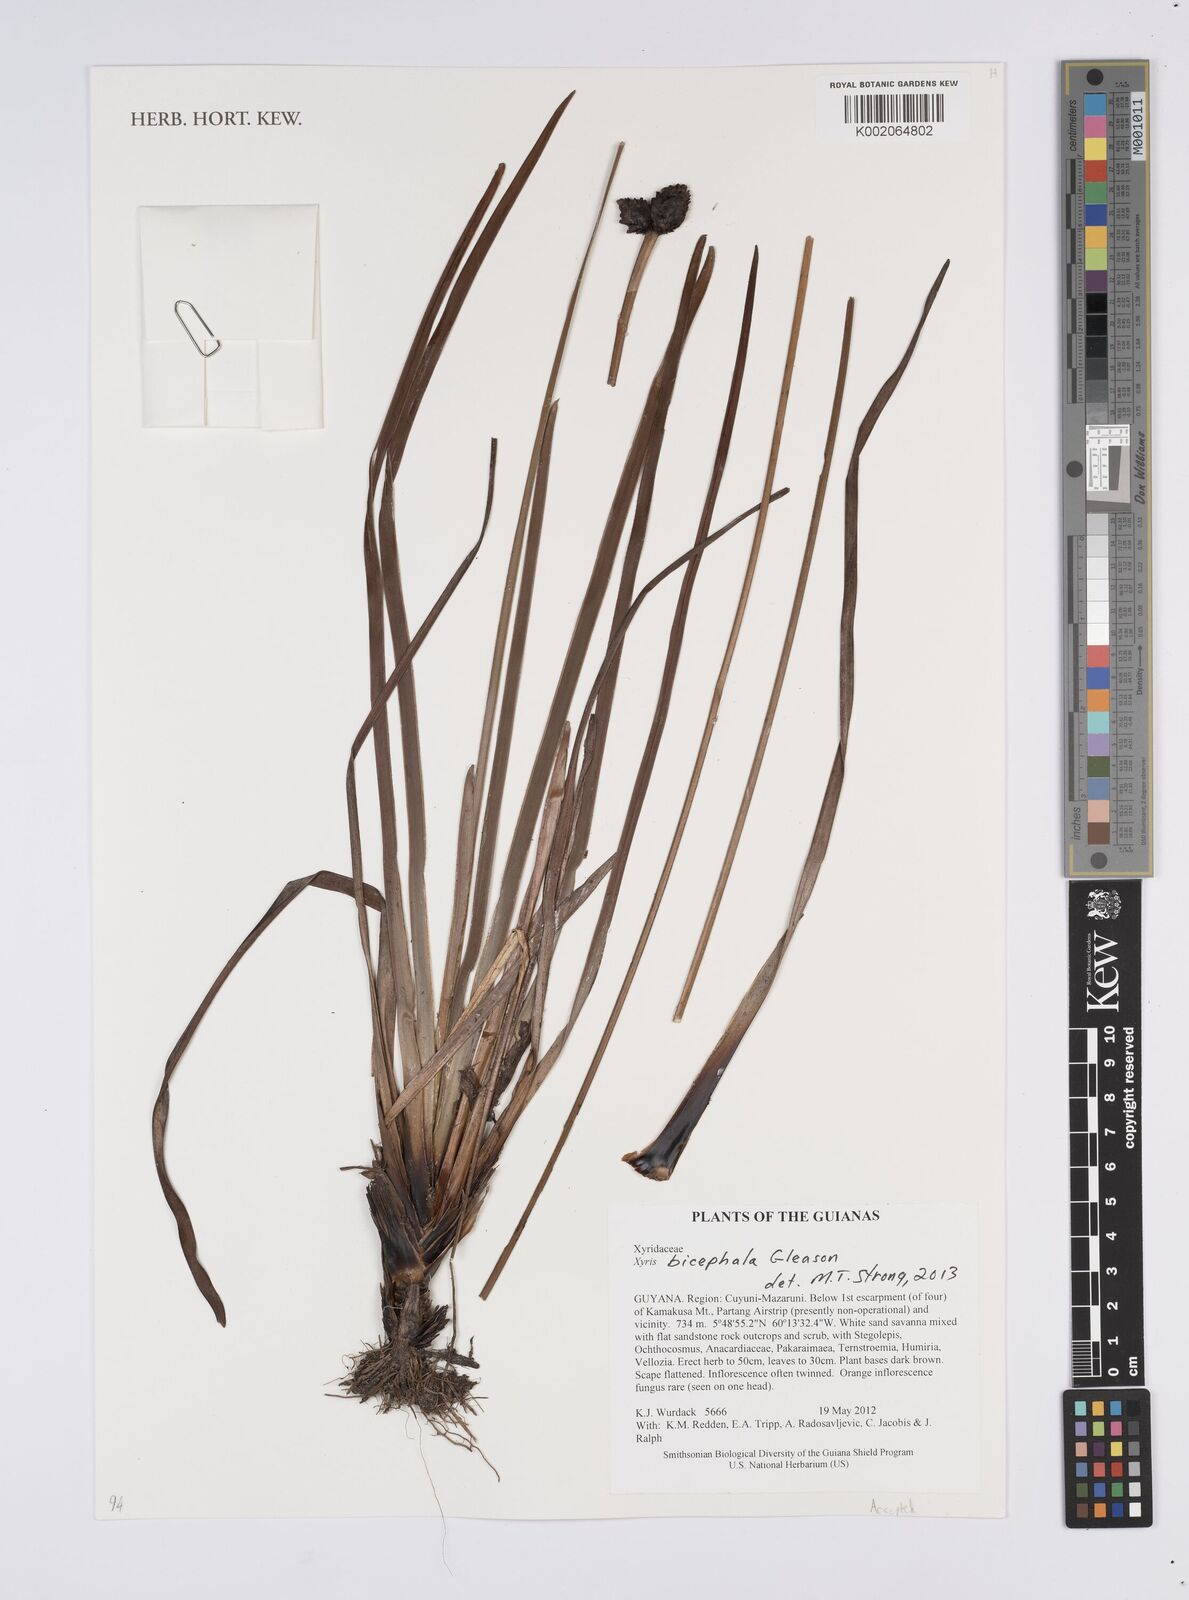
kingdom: Plantae
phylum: Tracheophyta
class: Liliopsida
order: Poales
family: Xyridaceae
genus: Xyris
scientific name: Xyris bicephala
